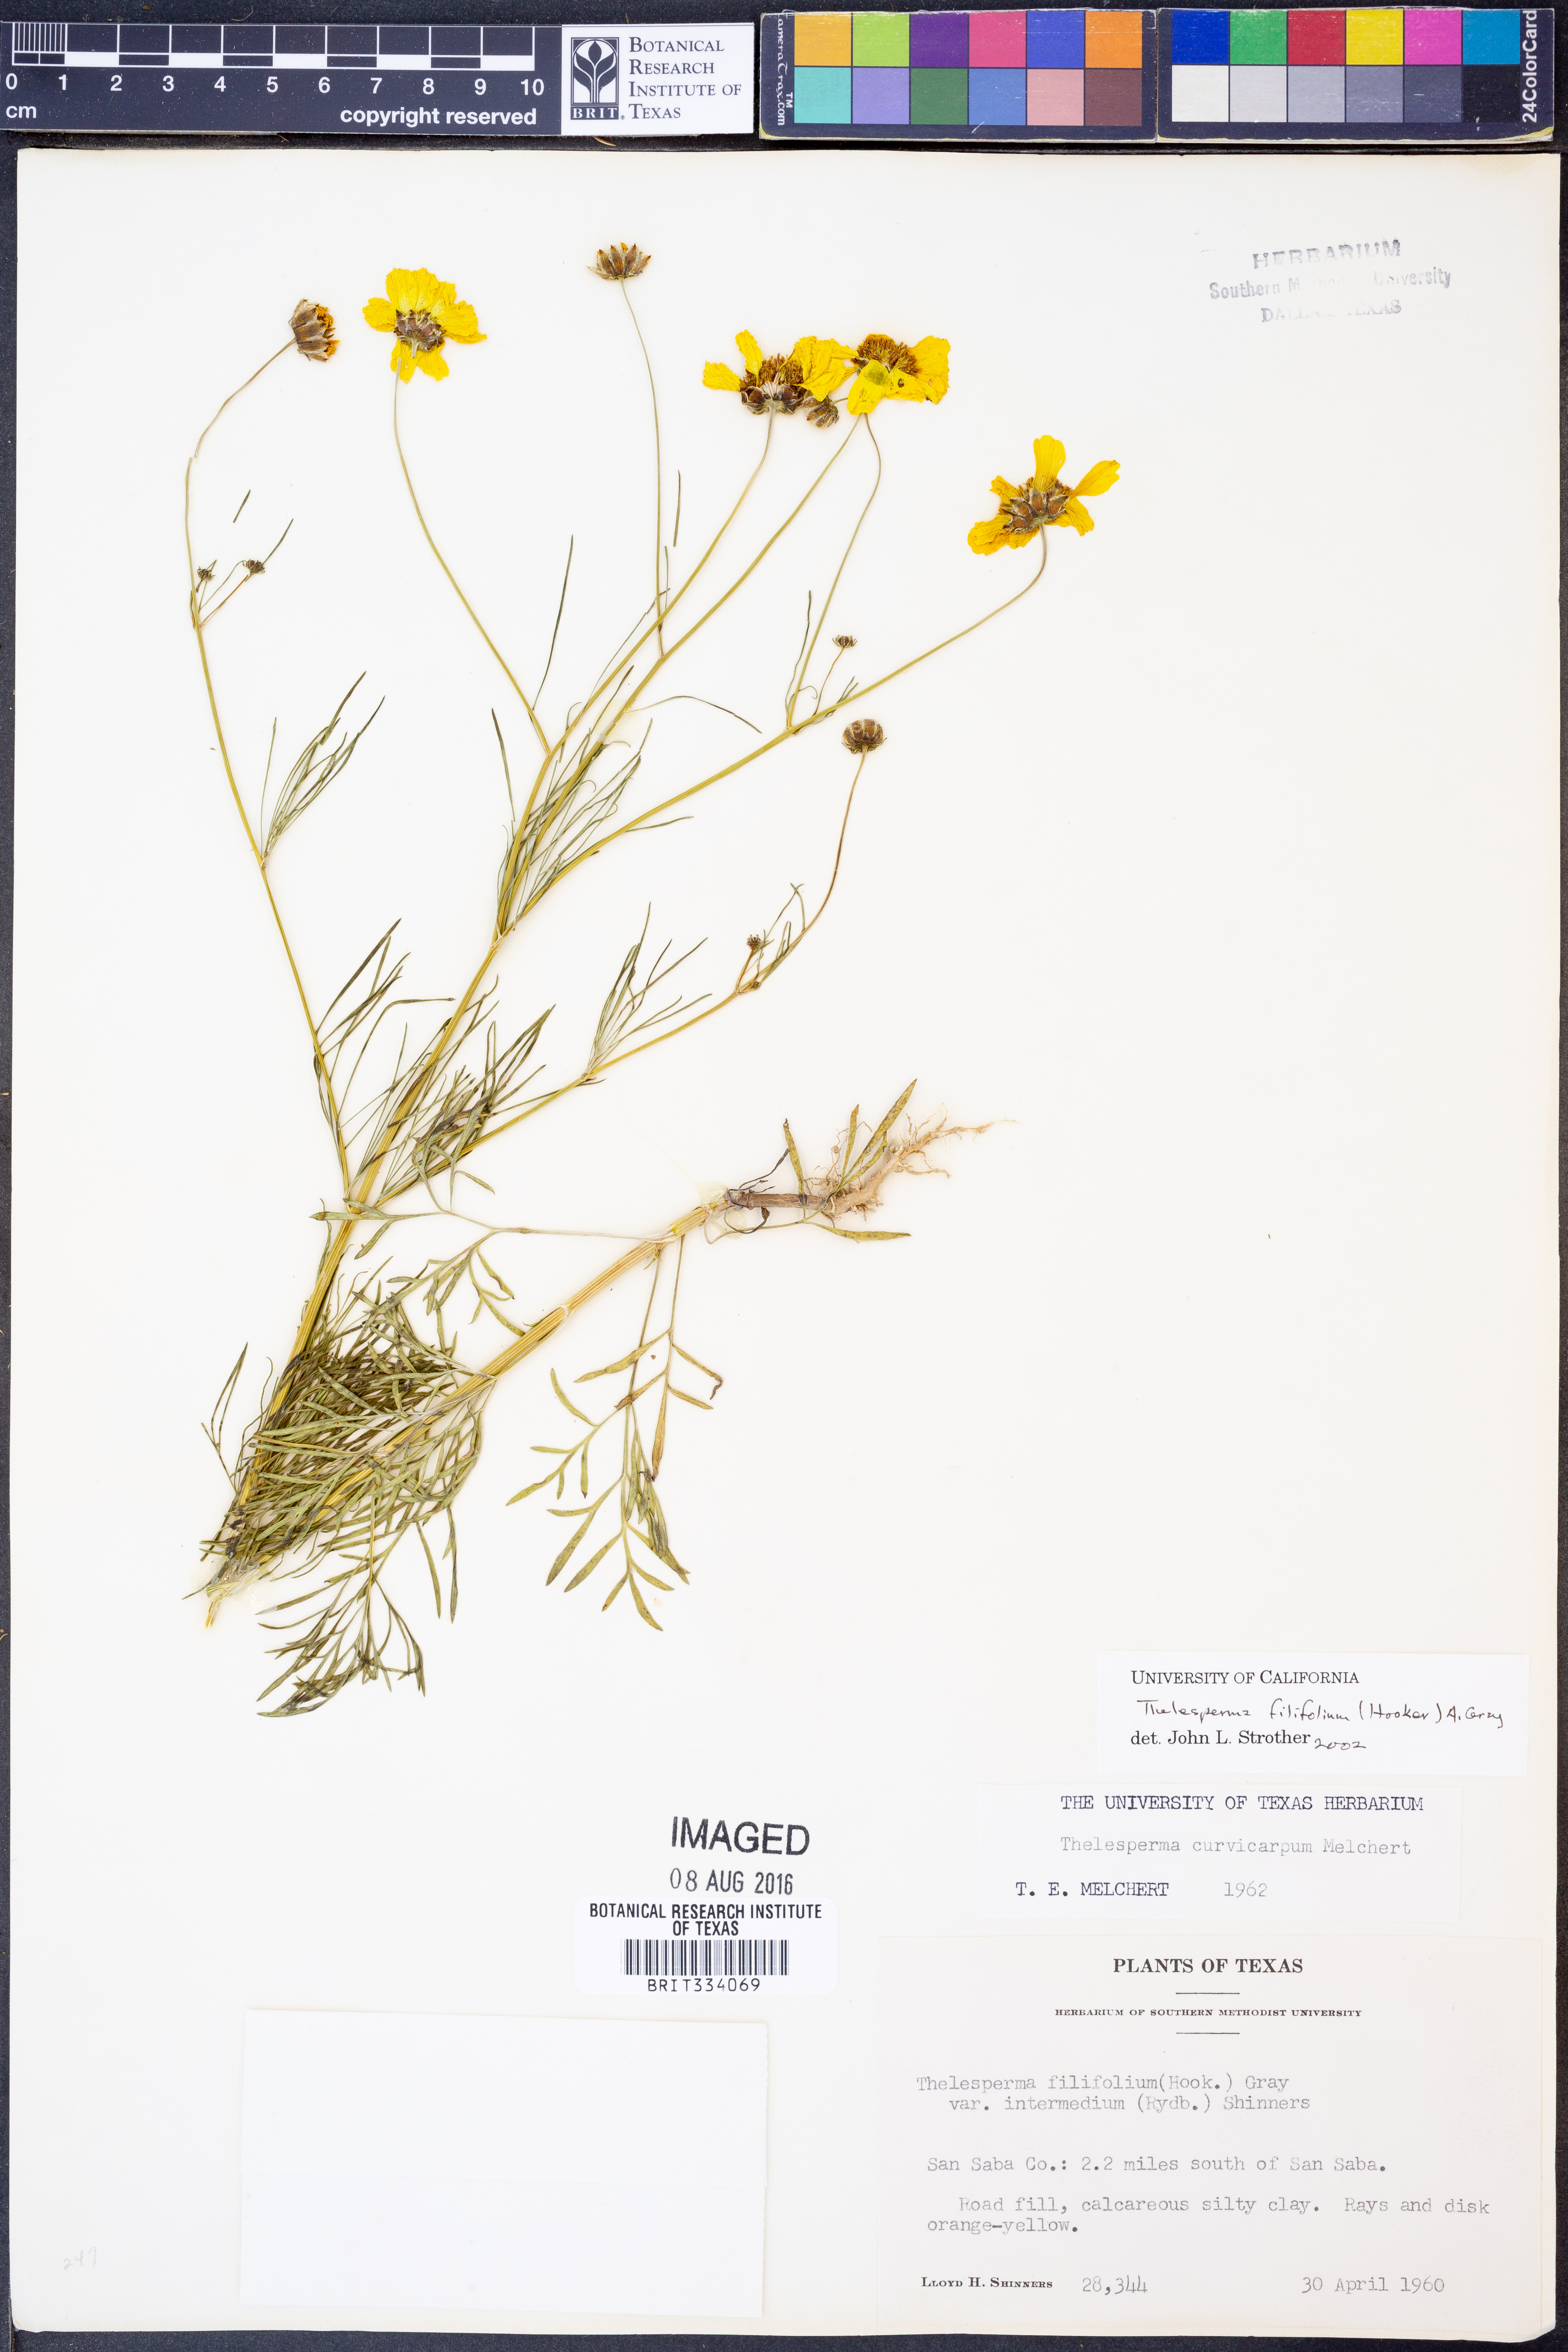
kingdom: Plantae
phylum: Tracheophyta
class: Magnoliopsida
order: Asterales
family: Asteraceae
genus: Thelesperma
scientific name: Thelesperma filifolium
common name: Stiff greenthread
